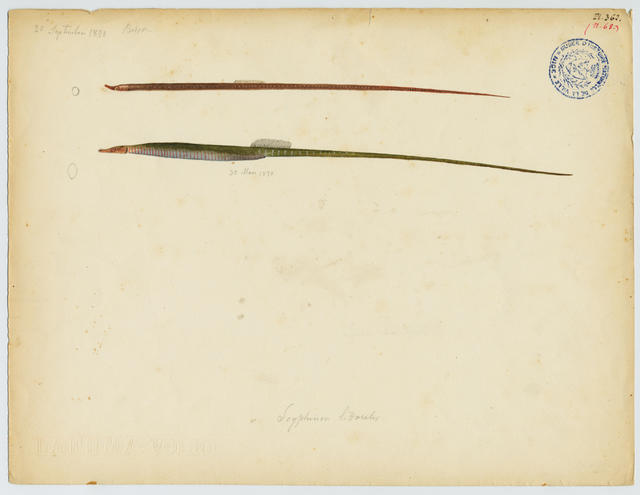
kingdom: Animalia
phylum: Chordata
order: Syngnathiformes
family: Syngnathidae
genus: Nerophis
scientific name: Nerophis maculatus
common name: Spotted pipefish
